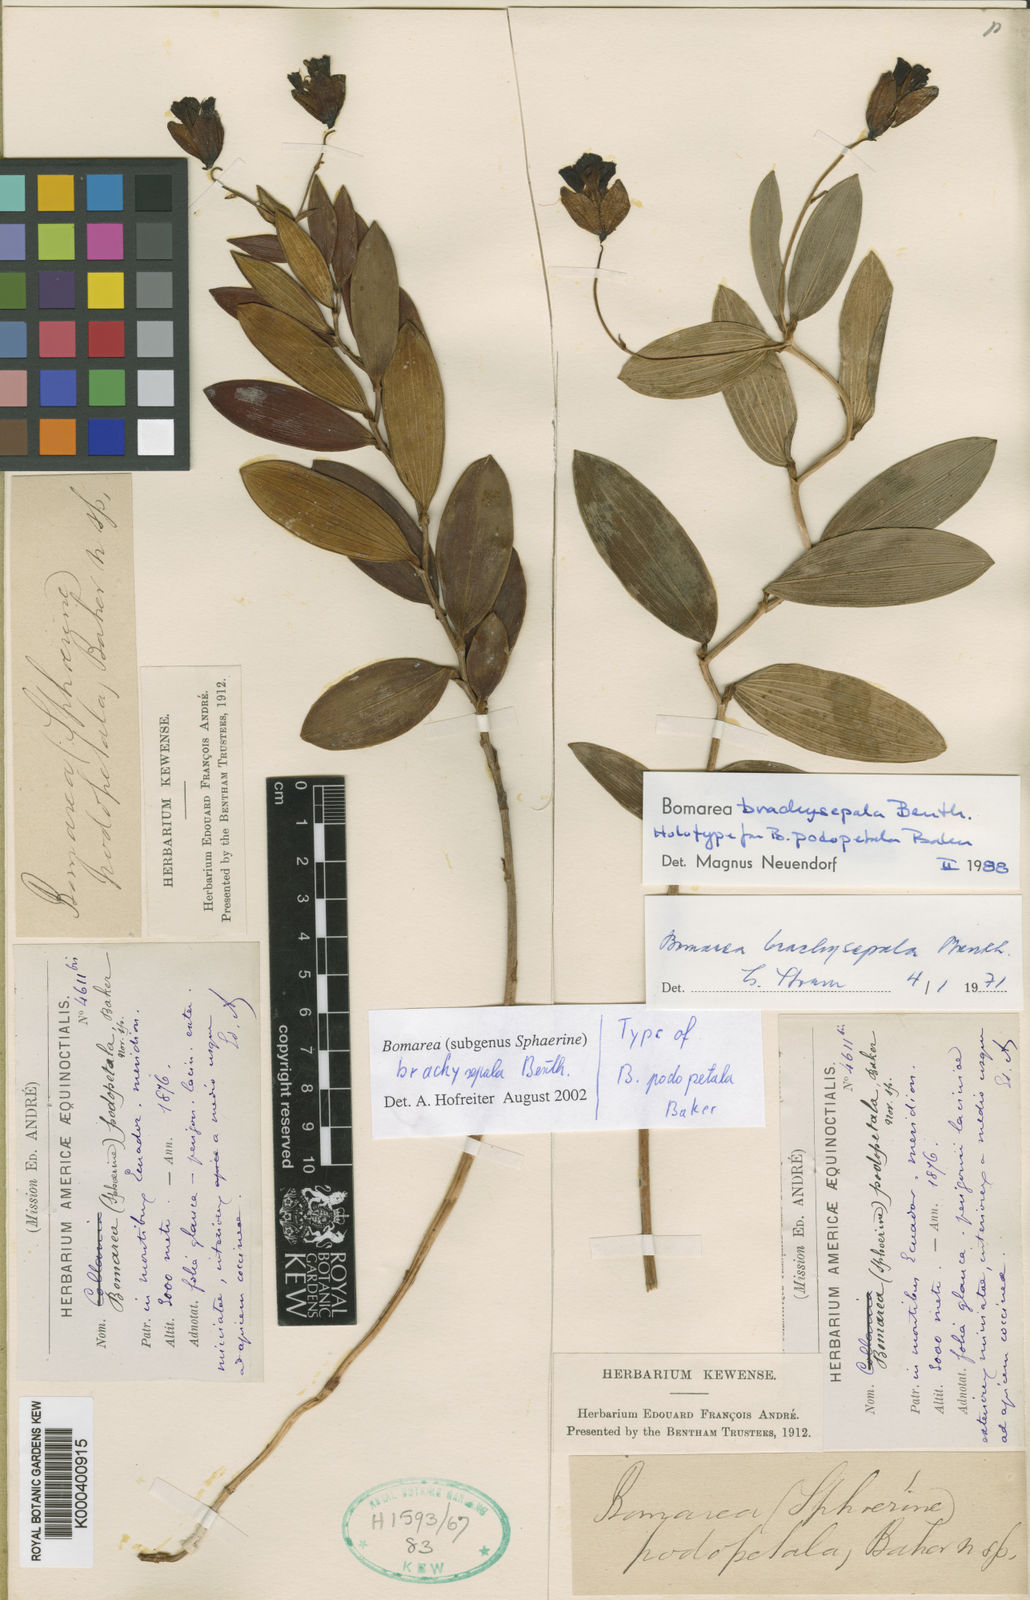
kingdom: Plantae
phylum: Tracheophyta
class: Liliopsida
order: Liliales
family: Alstroemeriaceae
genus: Bomarea
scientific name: Bomarea brachysepala
